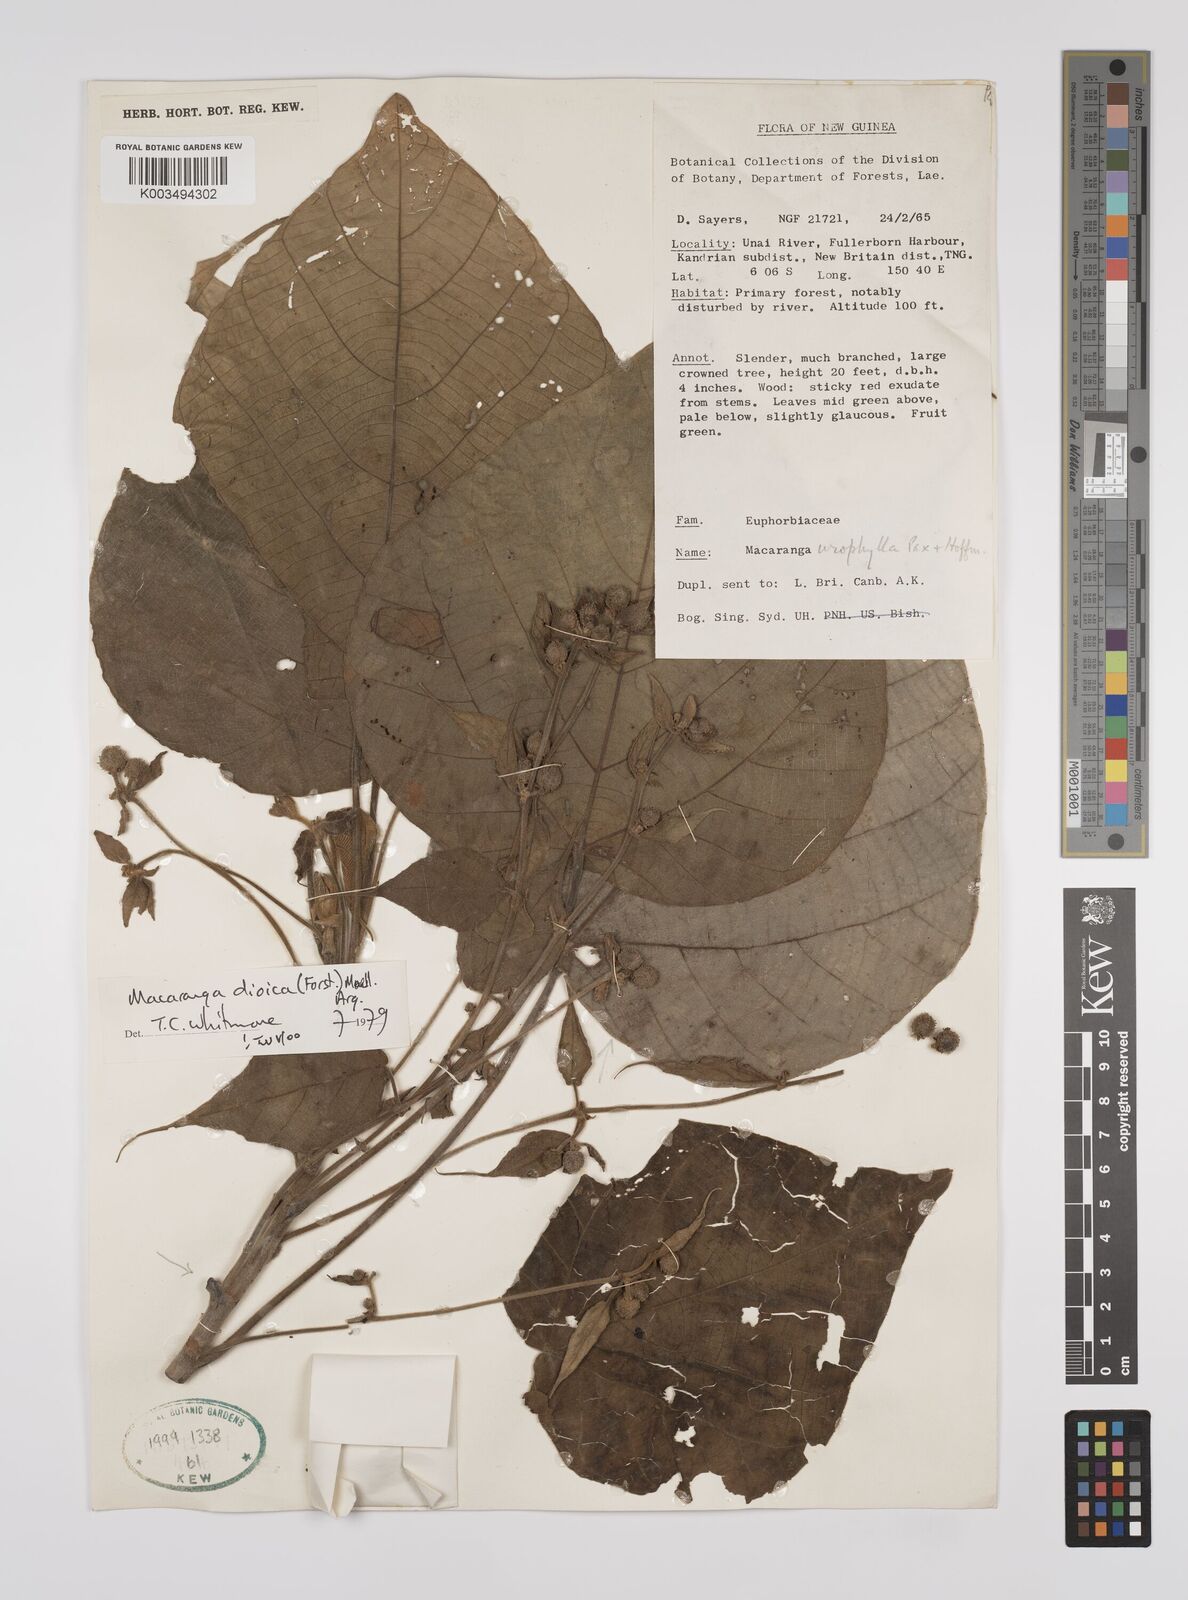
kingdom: Plantae
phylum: Tracheophyta
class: Magnoliopsida
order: Malpighiales
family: Euphorbiaceae
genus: Macaranga
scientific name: Macaranga dioica
